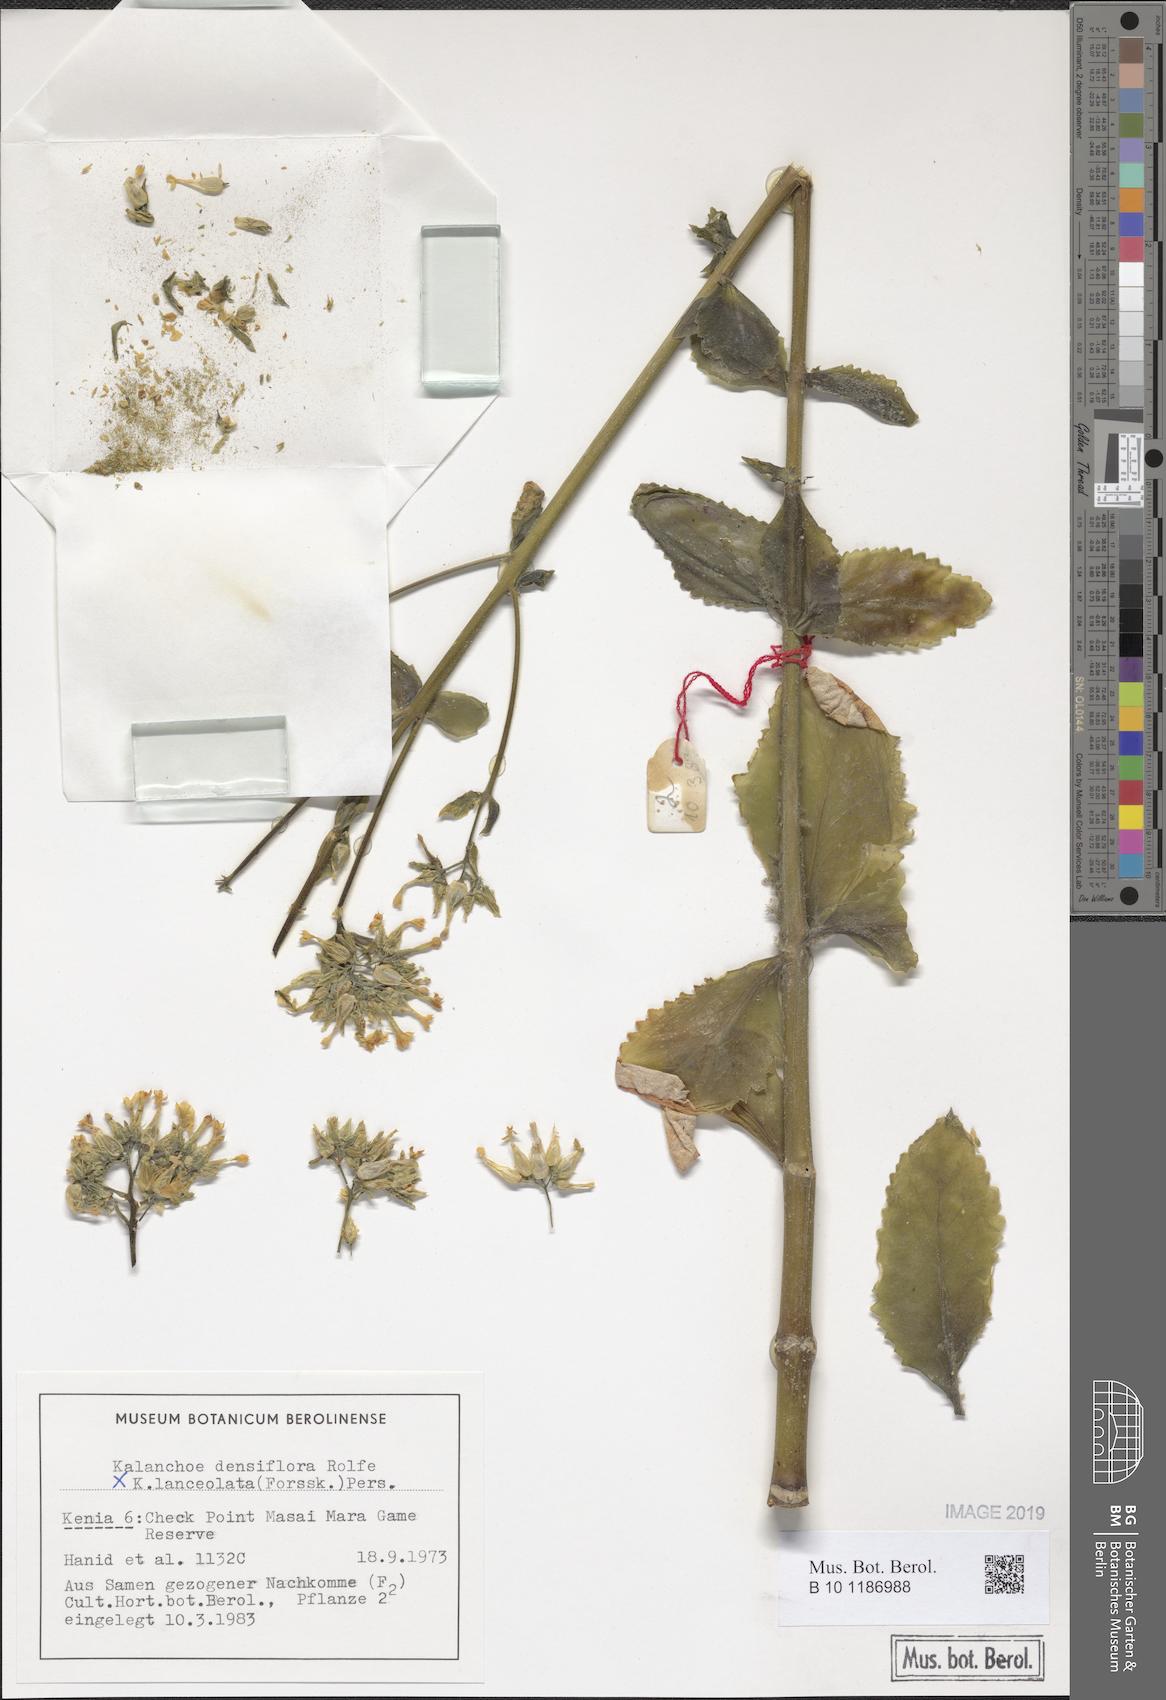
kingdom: Plantae
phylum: Tracheophyta
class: Magnoliopsida
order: Saxifragales
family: Crassulaceae
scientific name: Crassulaceae
